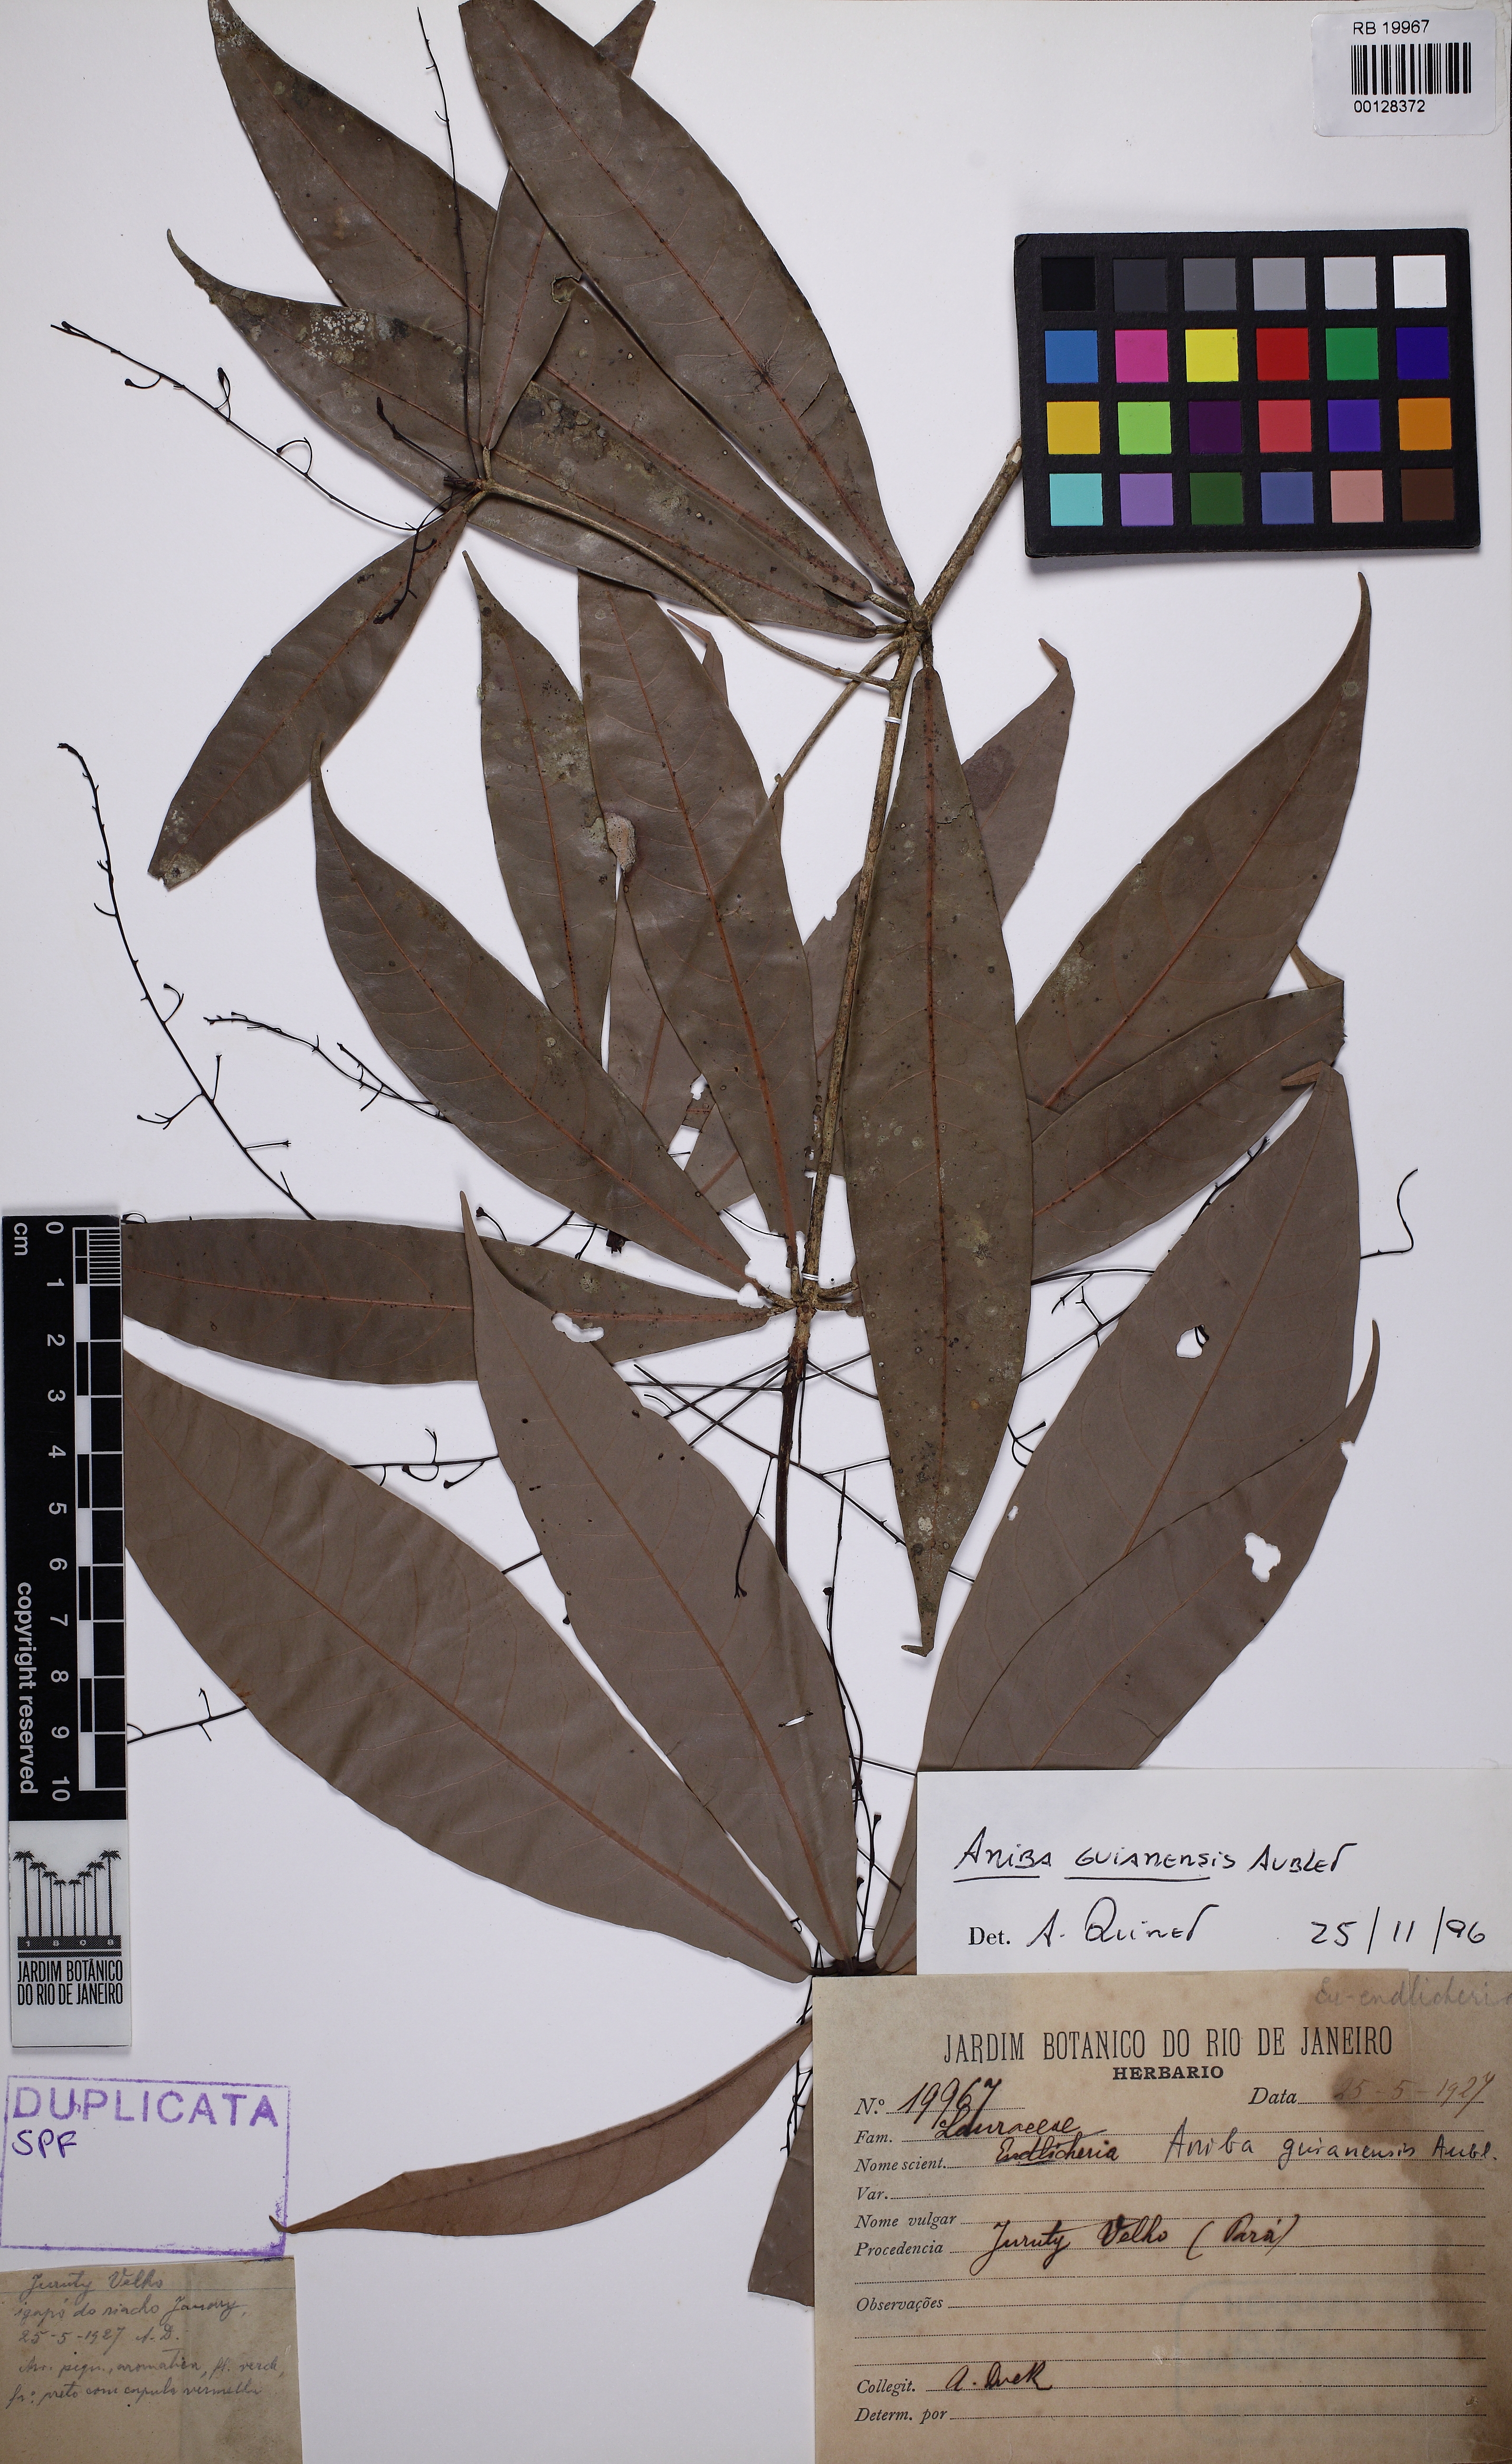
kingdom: Plantae
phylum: Tracheophyta
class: Magnoliopsida
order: Laurales
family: Lauraceae
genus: Aniba
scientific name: Aniba guianensis
